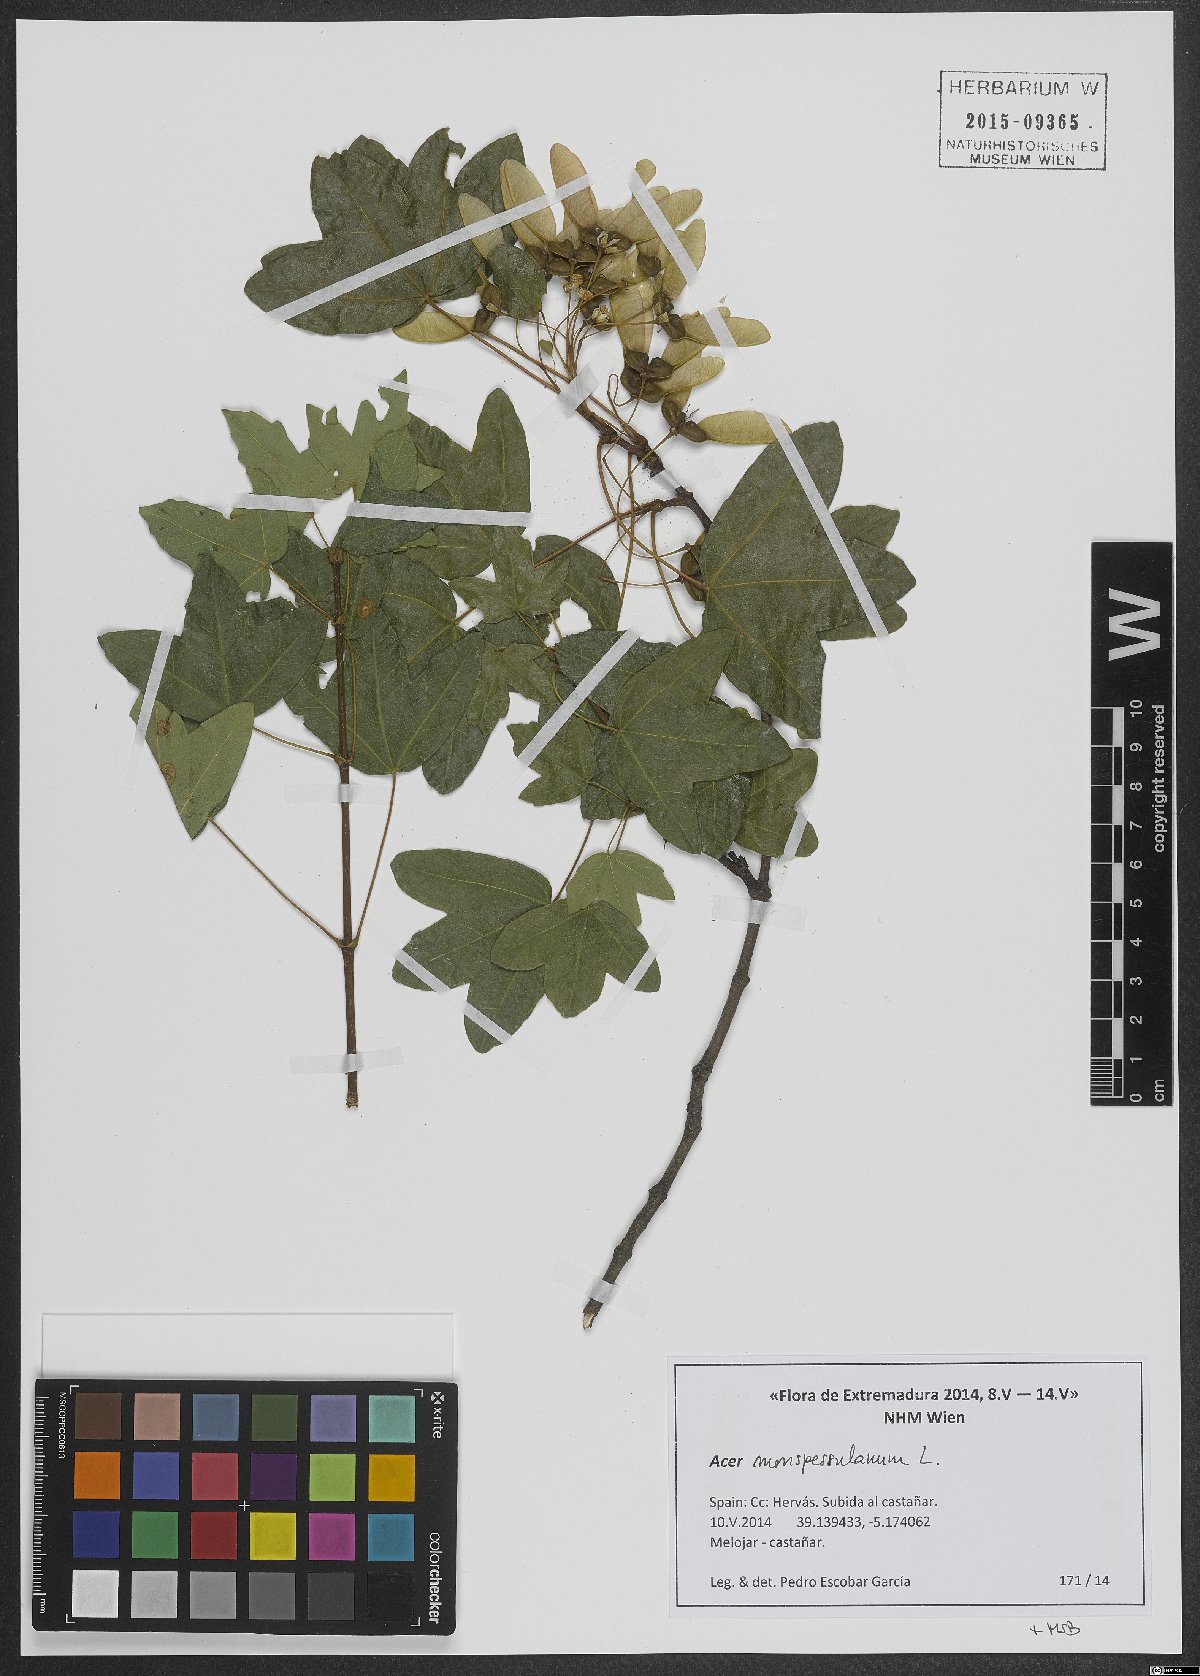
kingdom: Plantae
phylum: Tracheophyta
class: Magnoliopsida
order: Sapindales
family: Sapindaceae
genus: Acer
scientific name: Acer monspessulanum
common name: Montpellier maple
